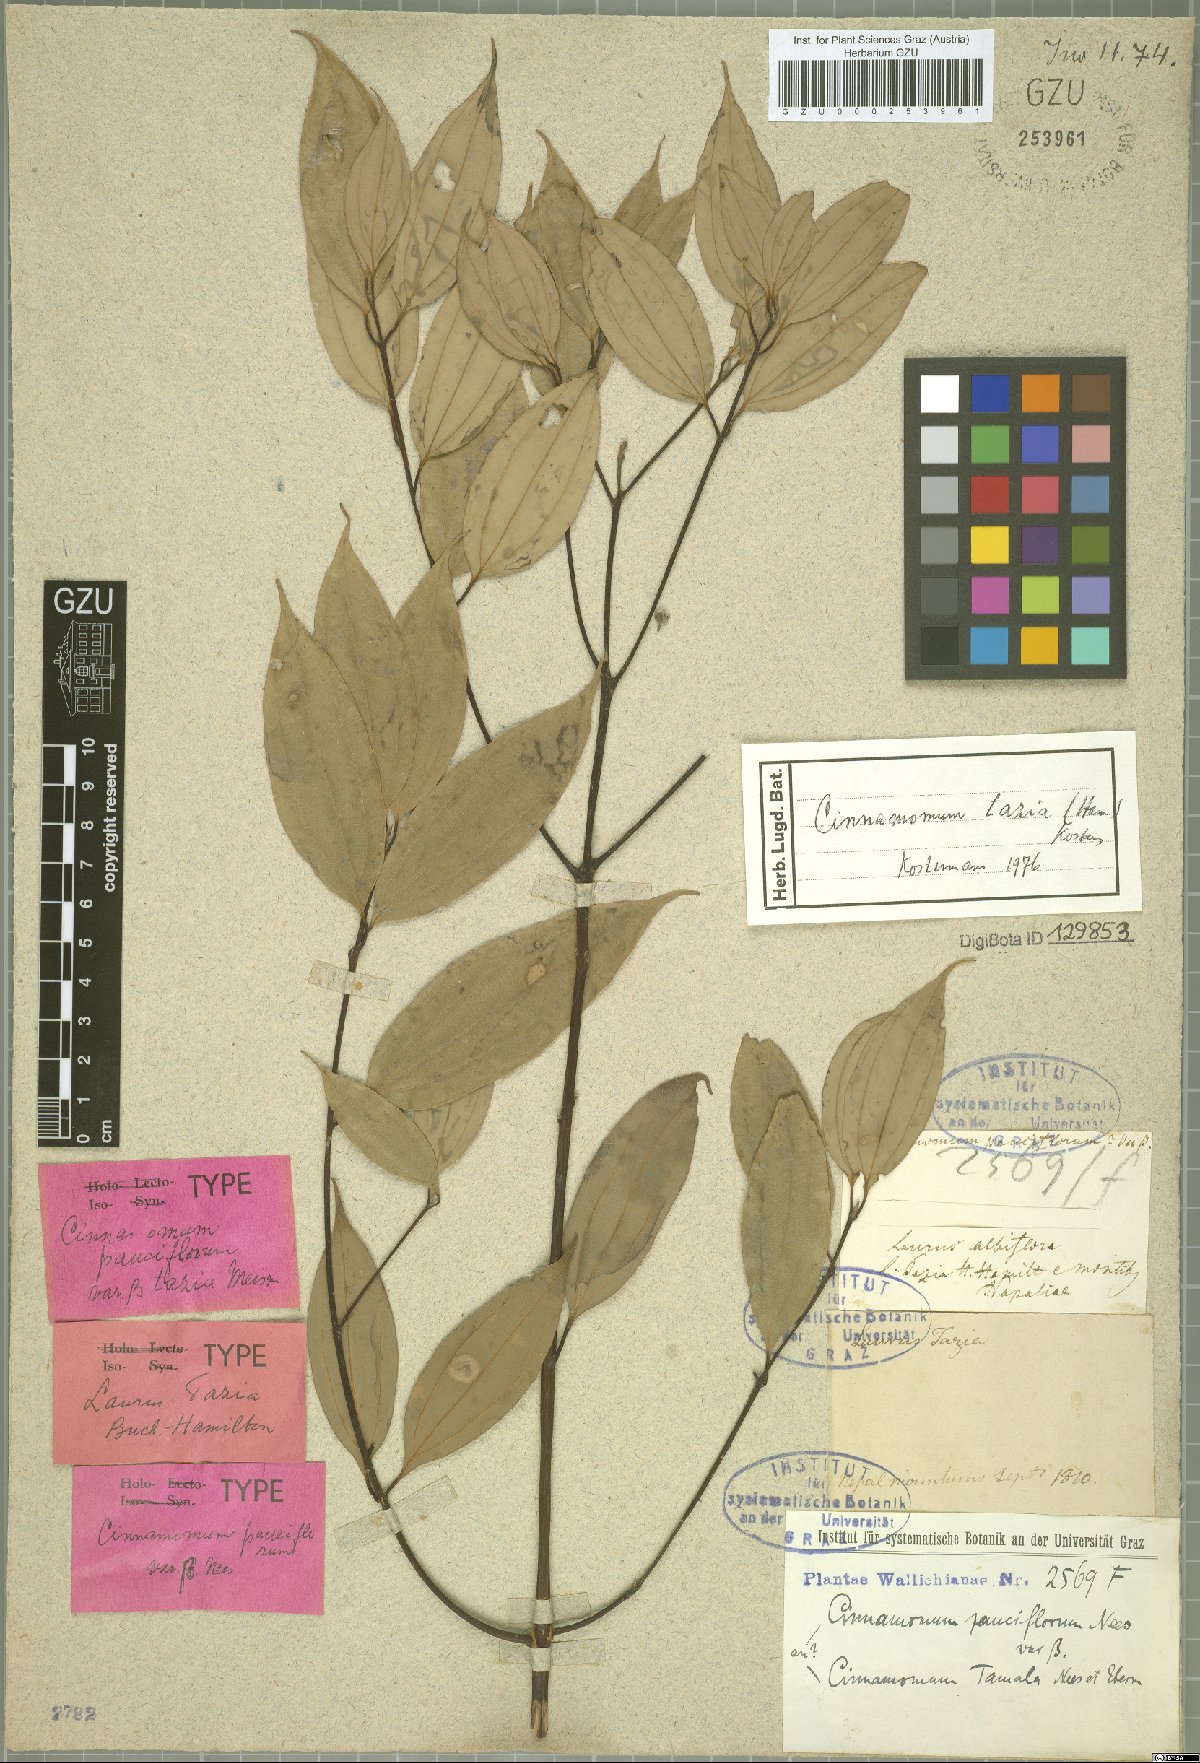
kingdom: Plantae
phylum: Tracheophyta
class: Magnoliopsida
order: Laurales
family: Lauraceae
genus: Cinnamomum
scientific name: Cinnamomum tazia
